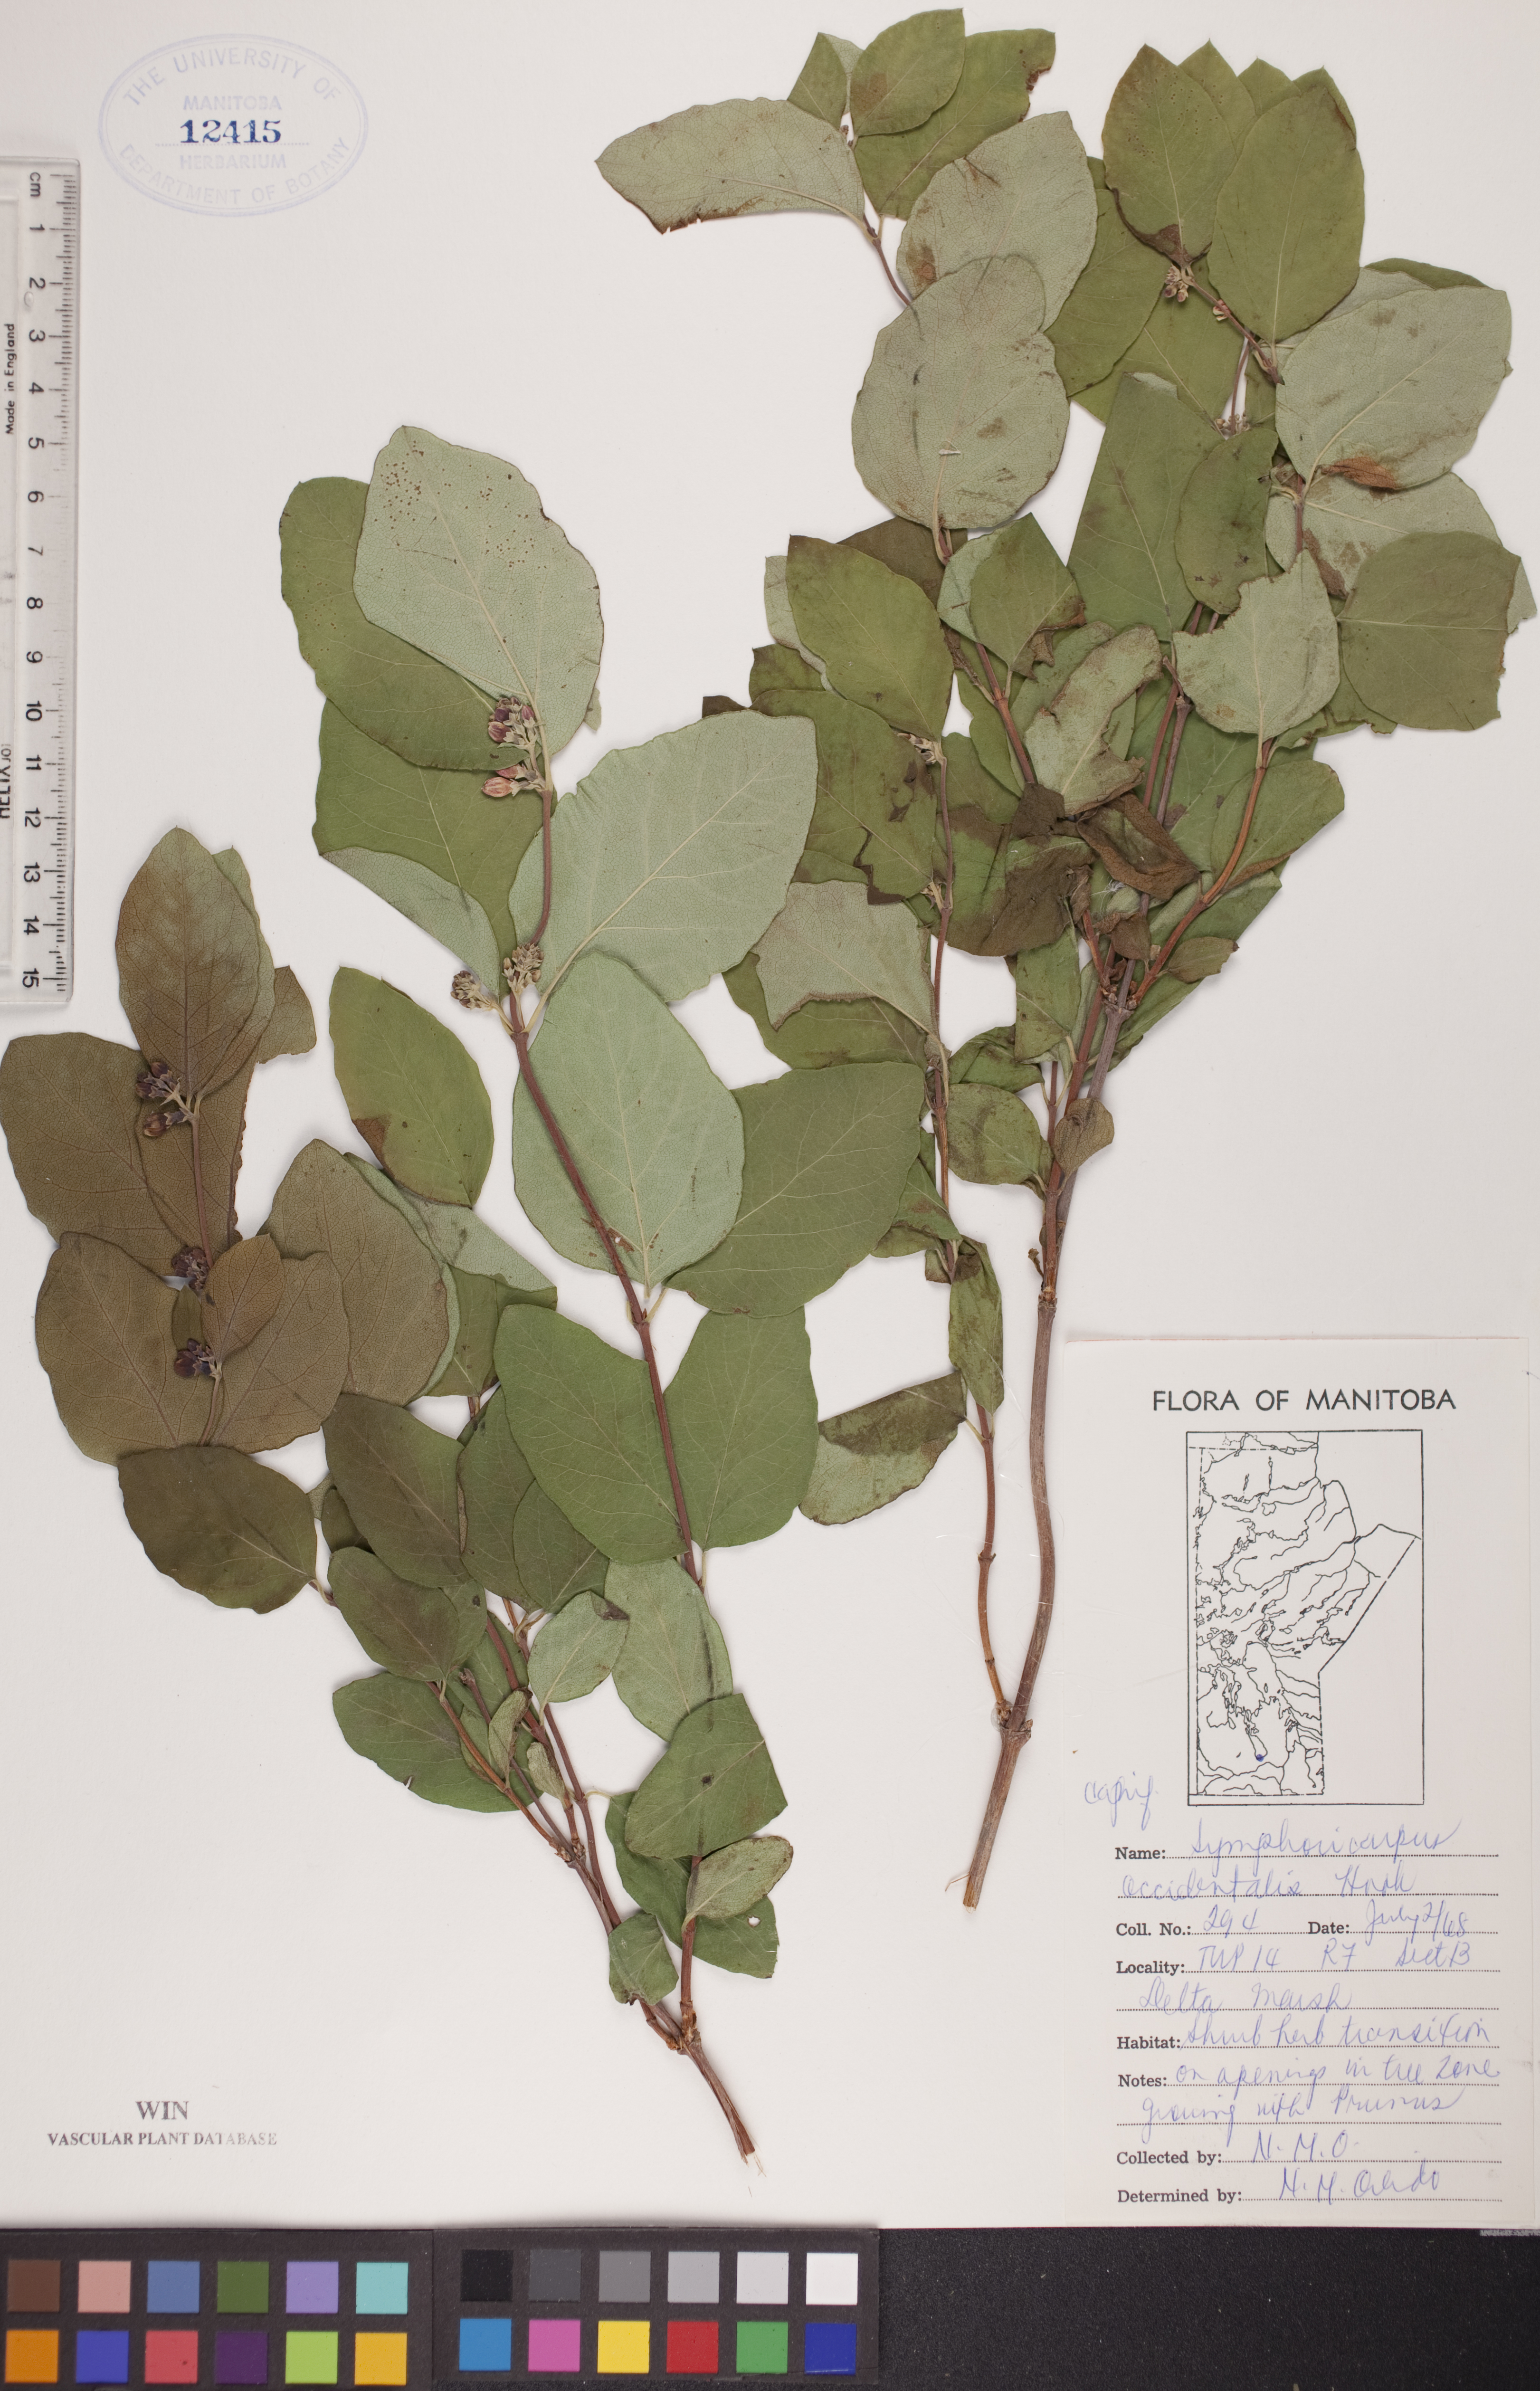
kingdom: Plantae
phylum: Tracheophyta
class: Magnoliopsida
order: Dipsacales
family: Caprifoliaceae
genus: Symphoricarpos
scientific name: Symphoricarpos occidentalis
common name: Wolfberry
